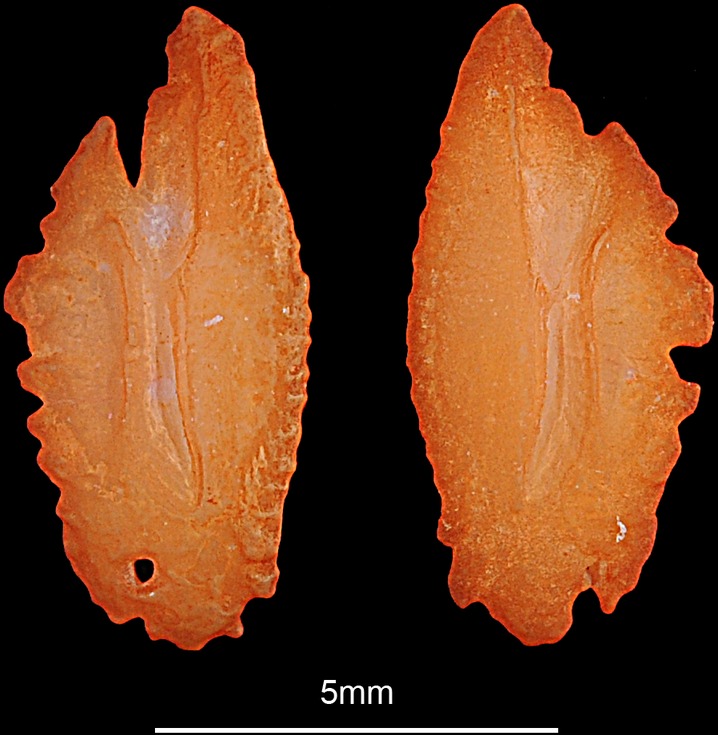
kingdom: Animalia
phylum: Chordata
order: Perciformes
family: Percidae
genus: Perca
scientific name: Perca fluviatilis
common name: Perch
